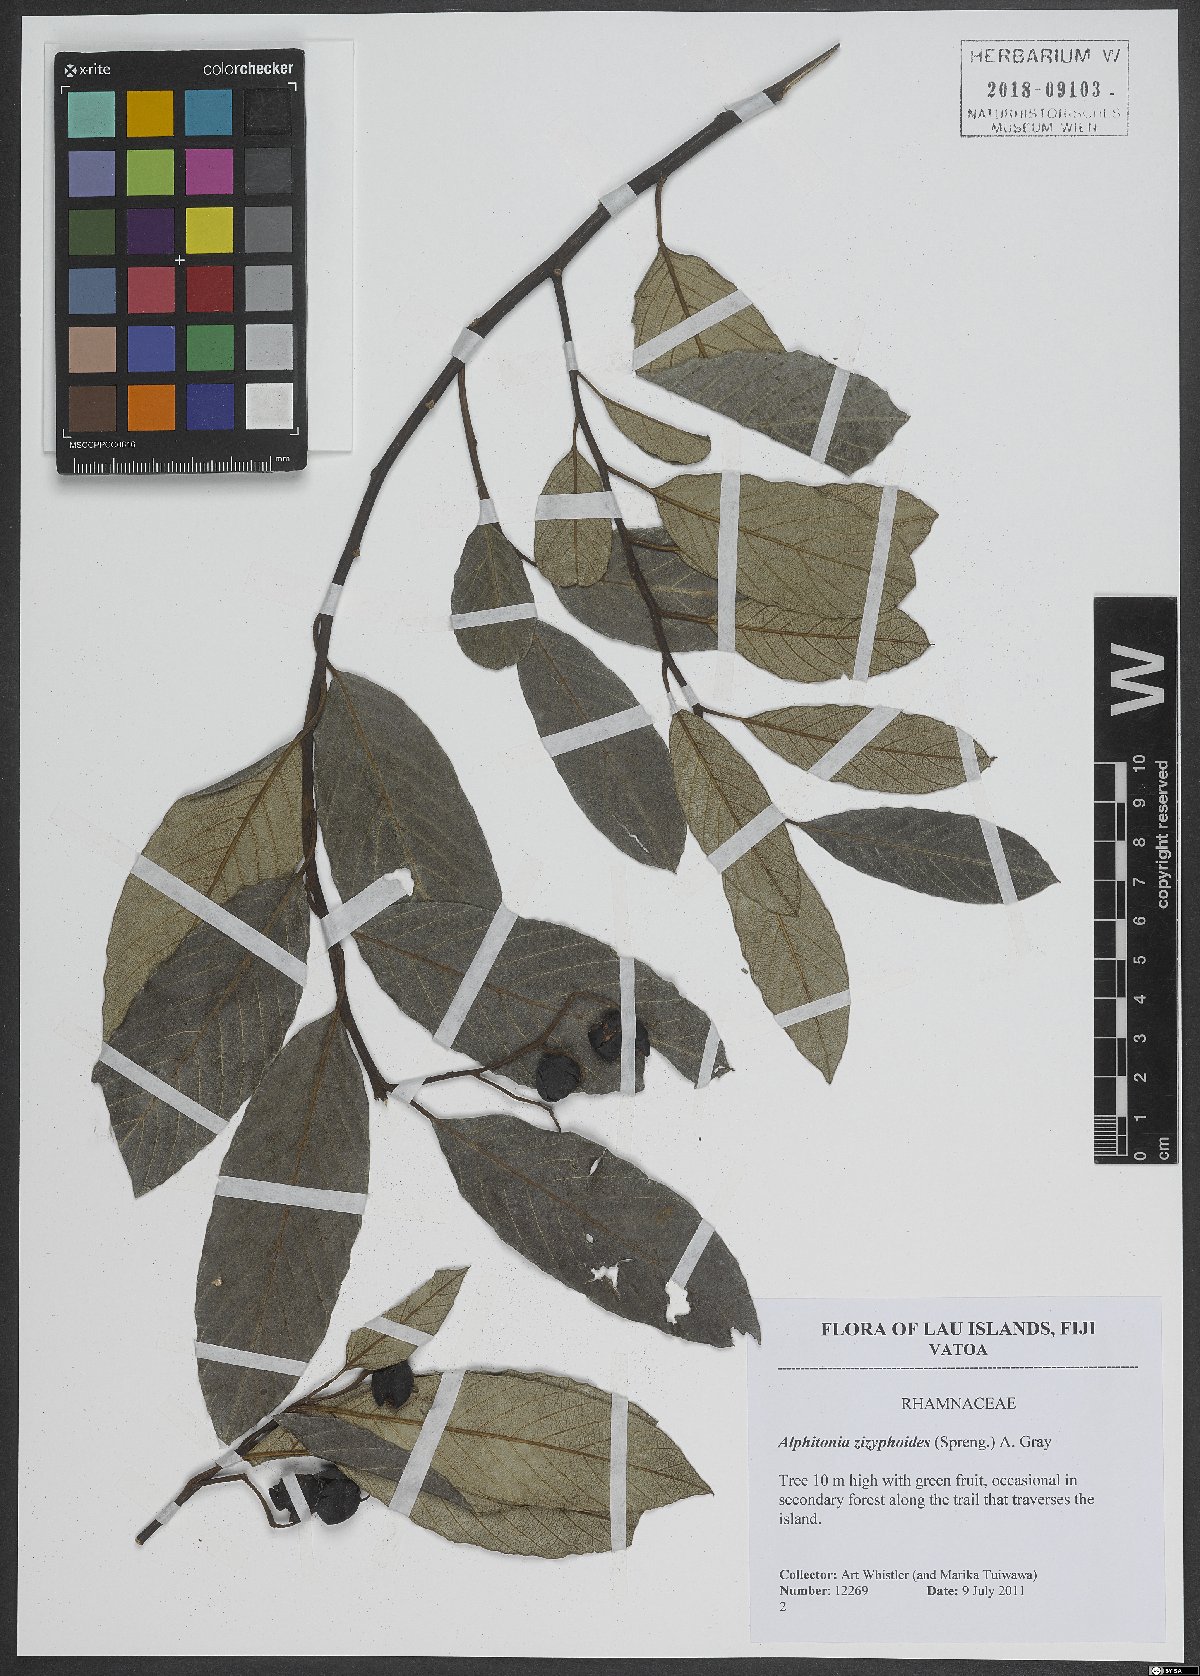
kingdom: Plantae
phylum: Tracheophyta
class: Magnoliopsida
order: Rosales
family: Rhamnaceae
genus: Alphitonia
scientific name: Alphitonia zizyphoides
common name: Toi
